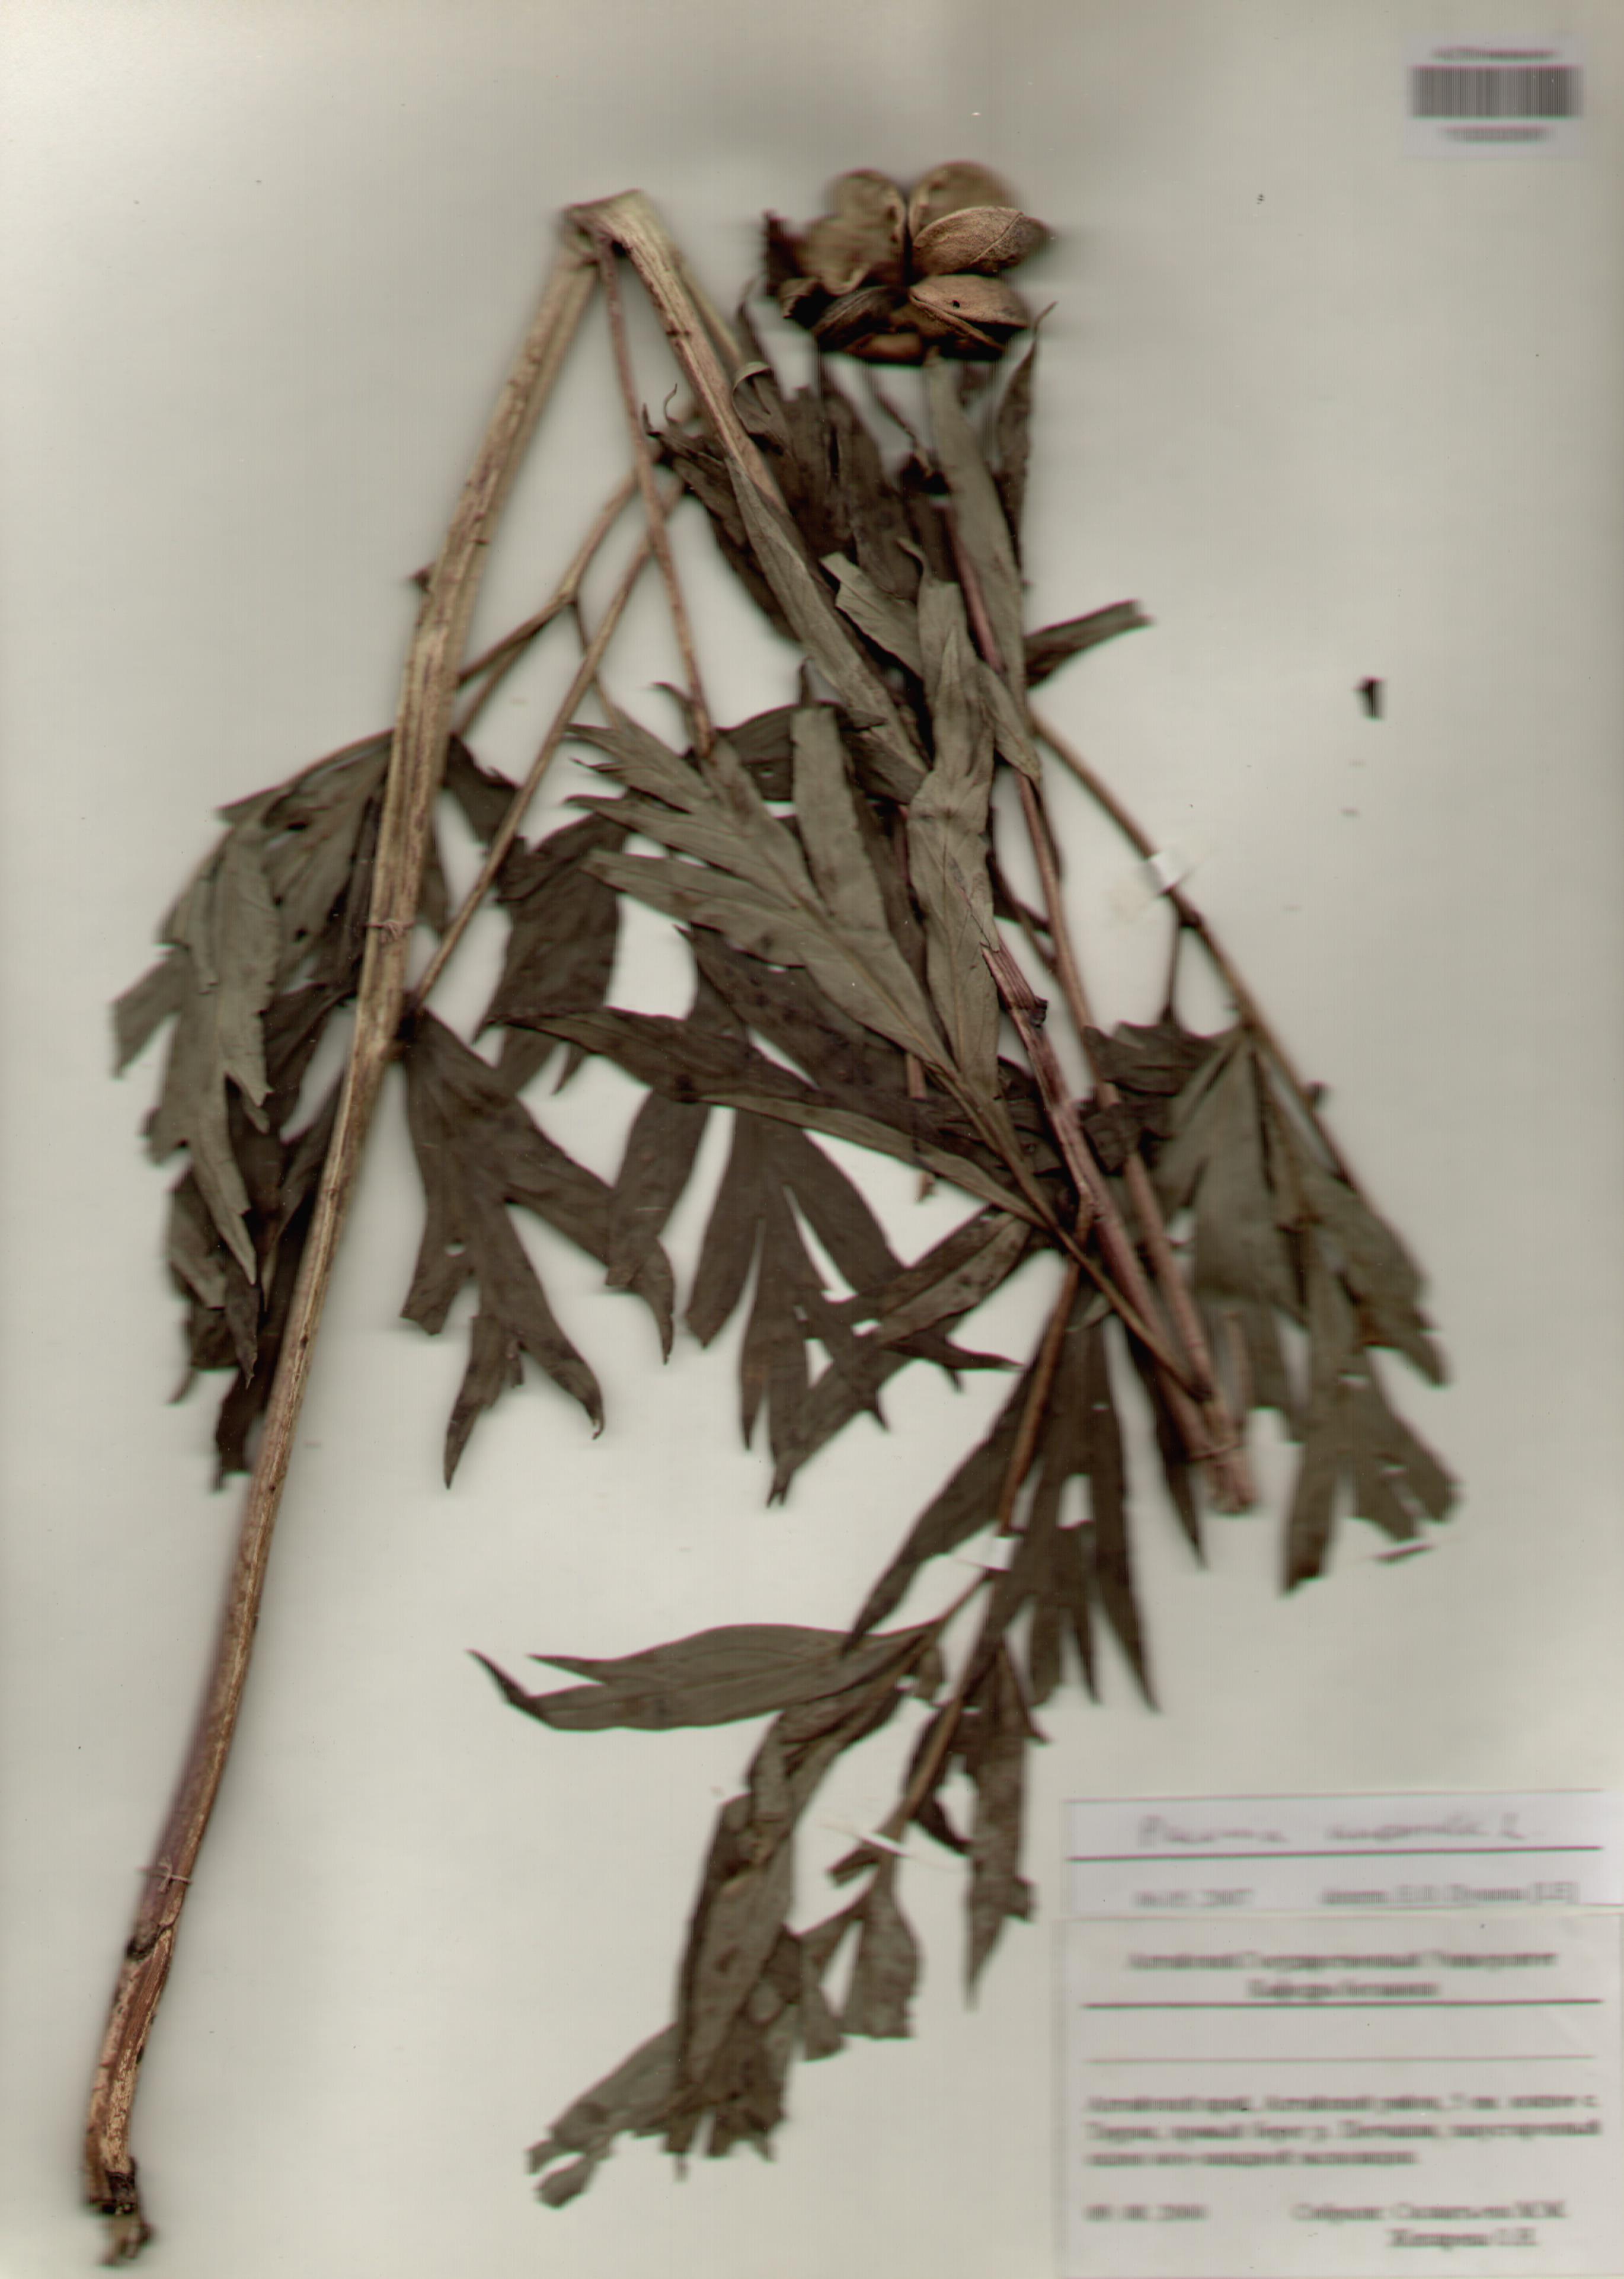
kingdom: Plantae
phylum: Tracheophyta
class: Magnoliopsida
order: Saxifragales
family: Paeoniaceae
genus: Paeonia
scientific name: Paeonia anomala
